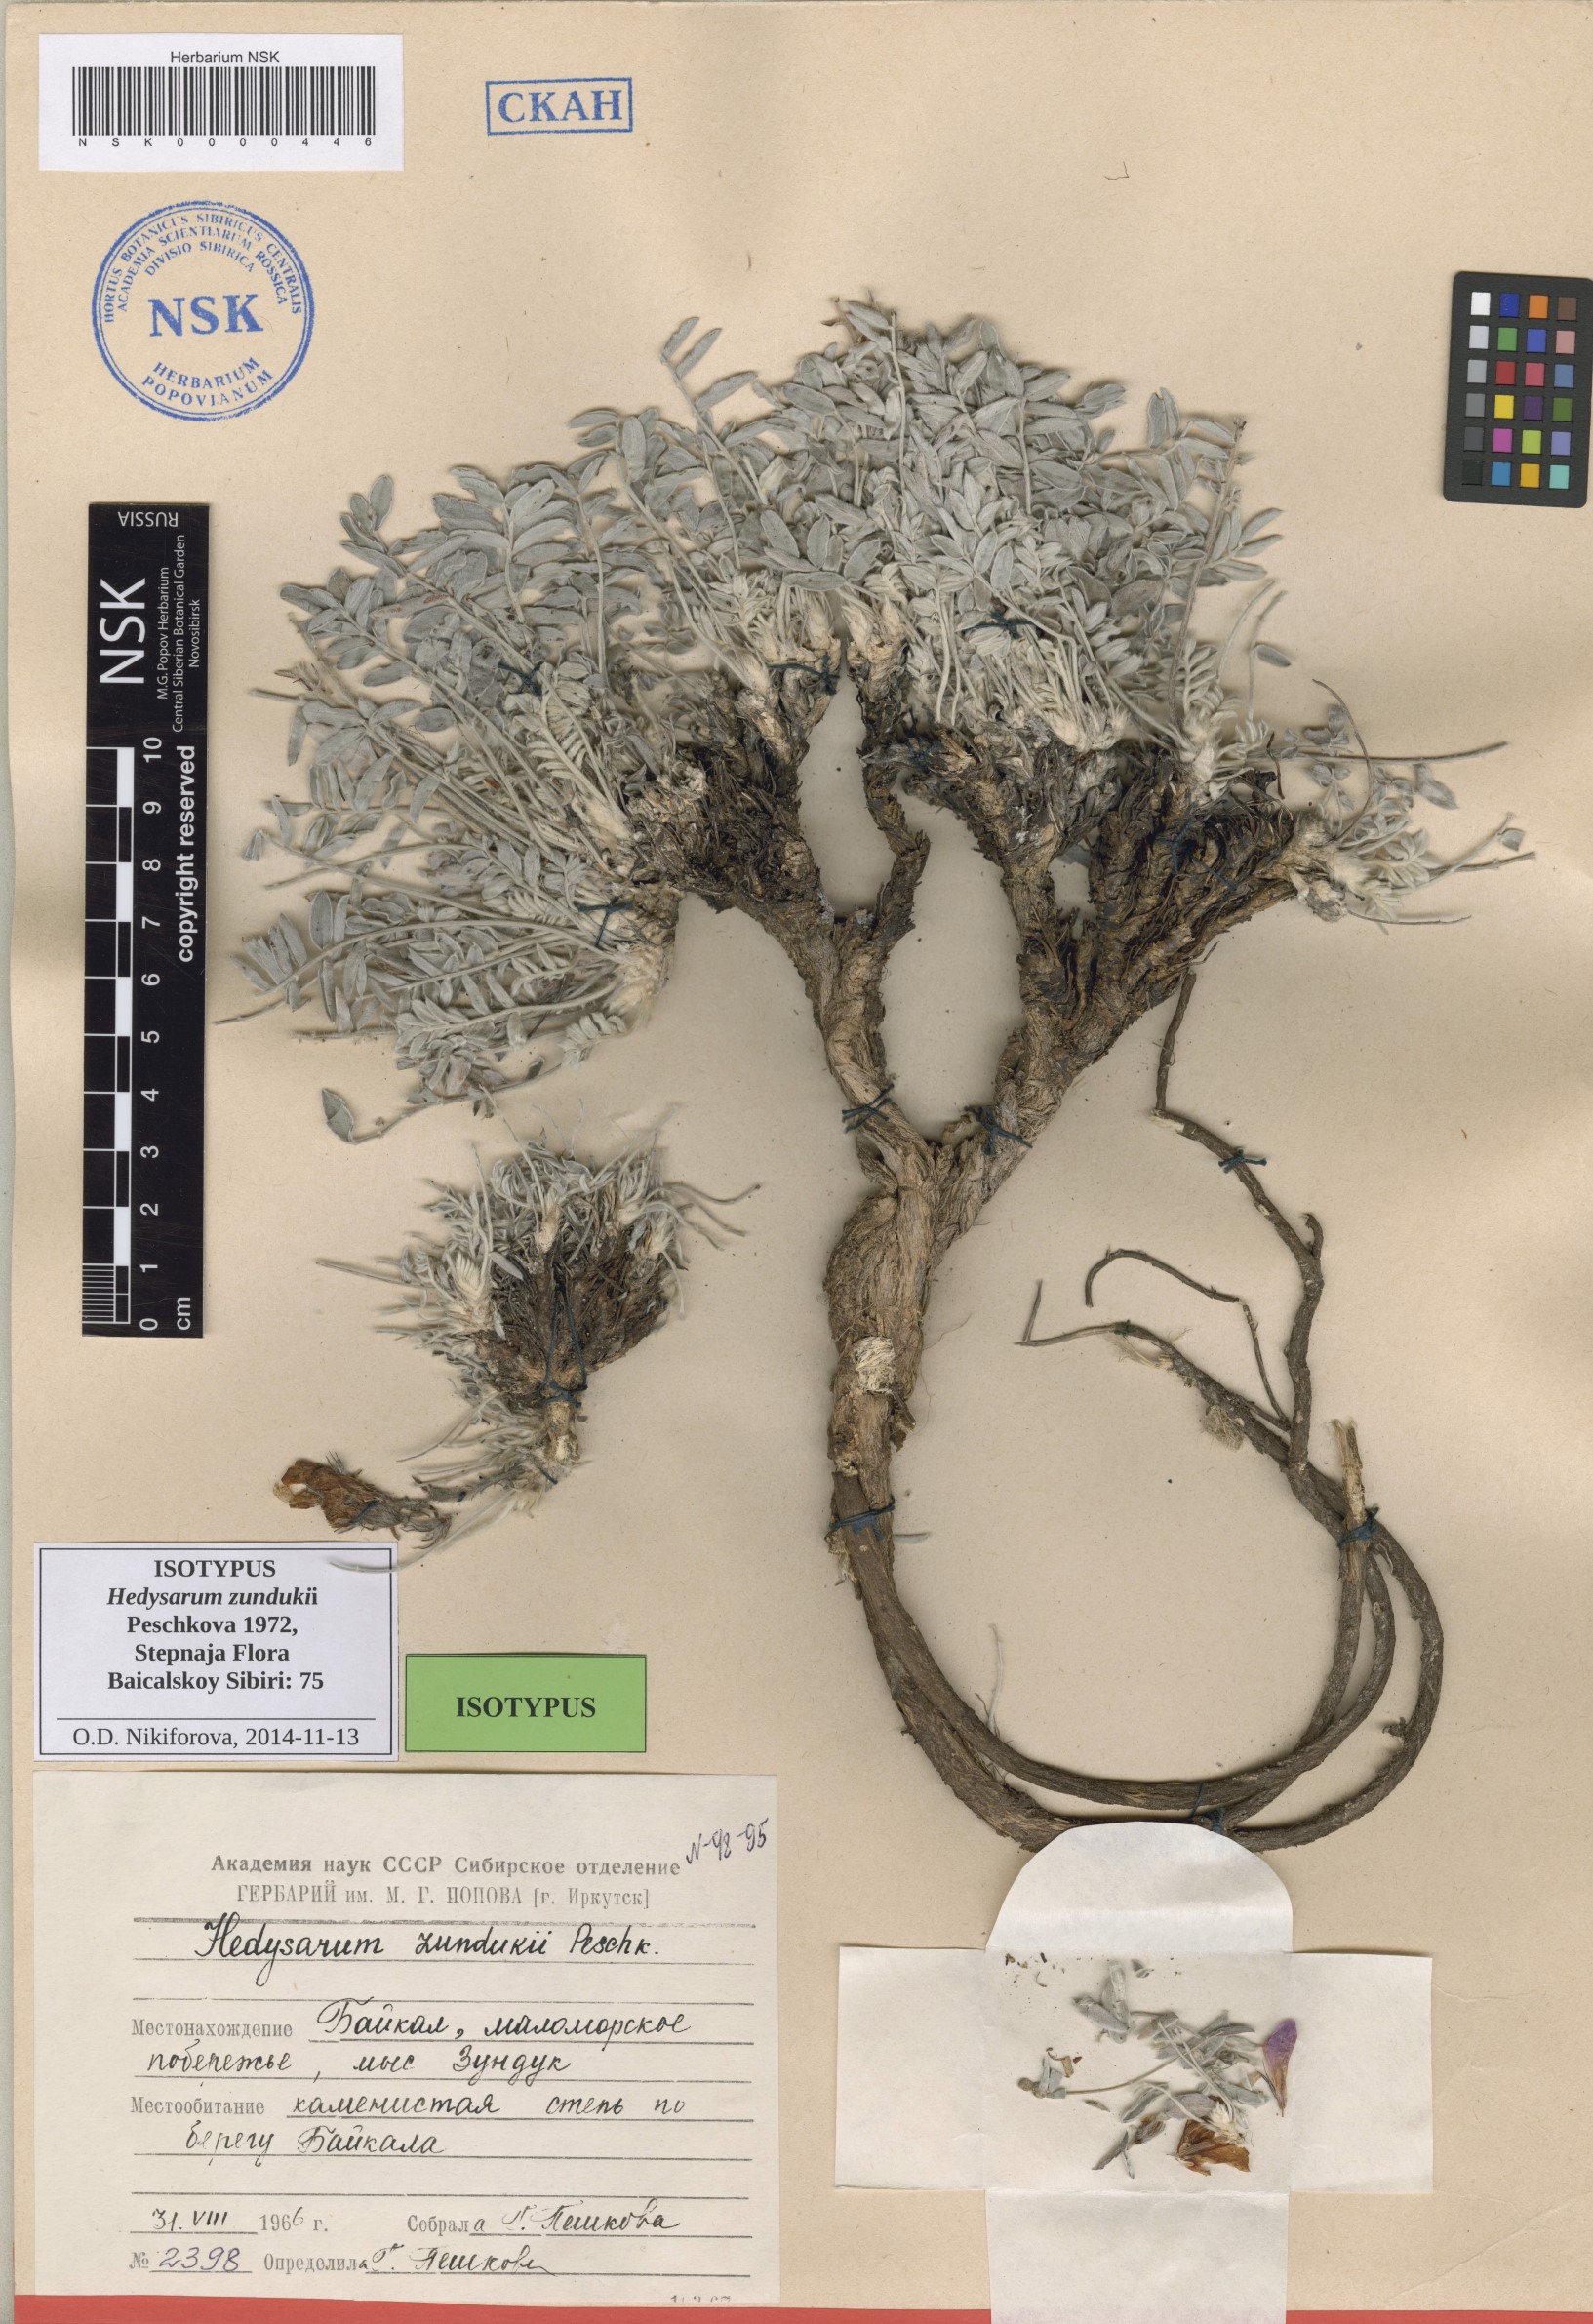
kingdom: Plantae
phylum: Tracheophyta
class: Magnoliopsida
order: Fabales
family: Fabaceae
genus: Hedysarum
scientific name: Hedysarum zundukii
